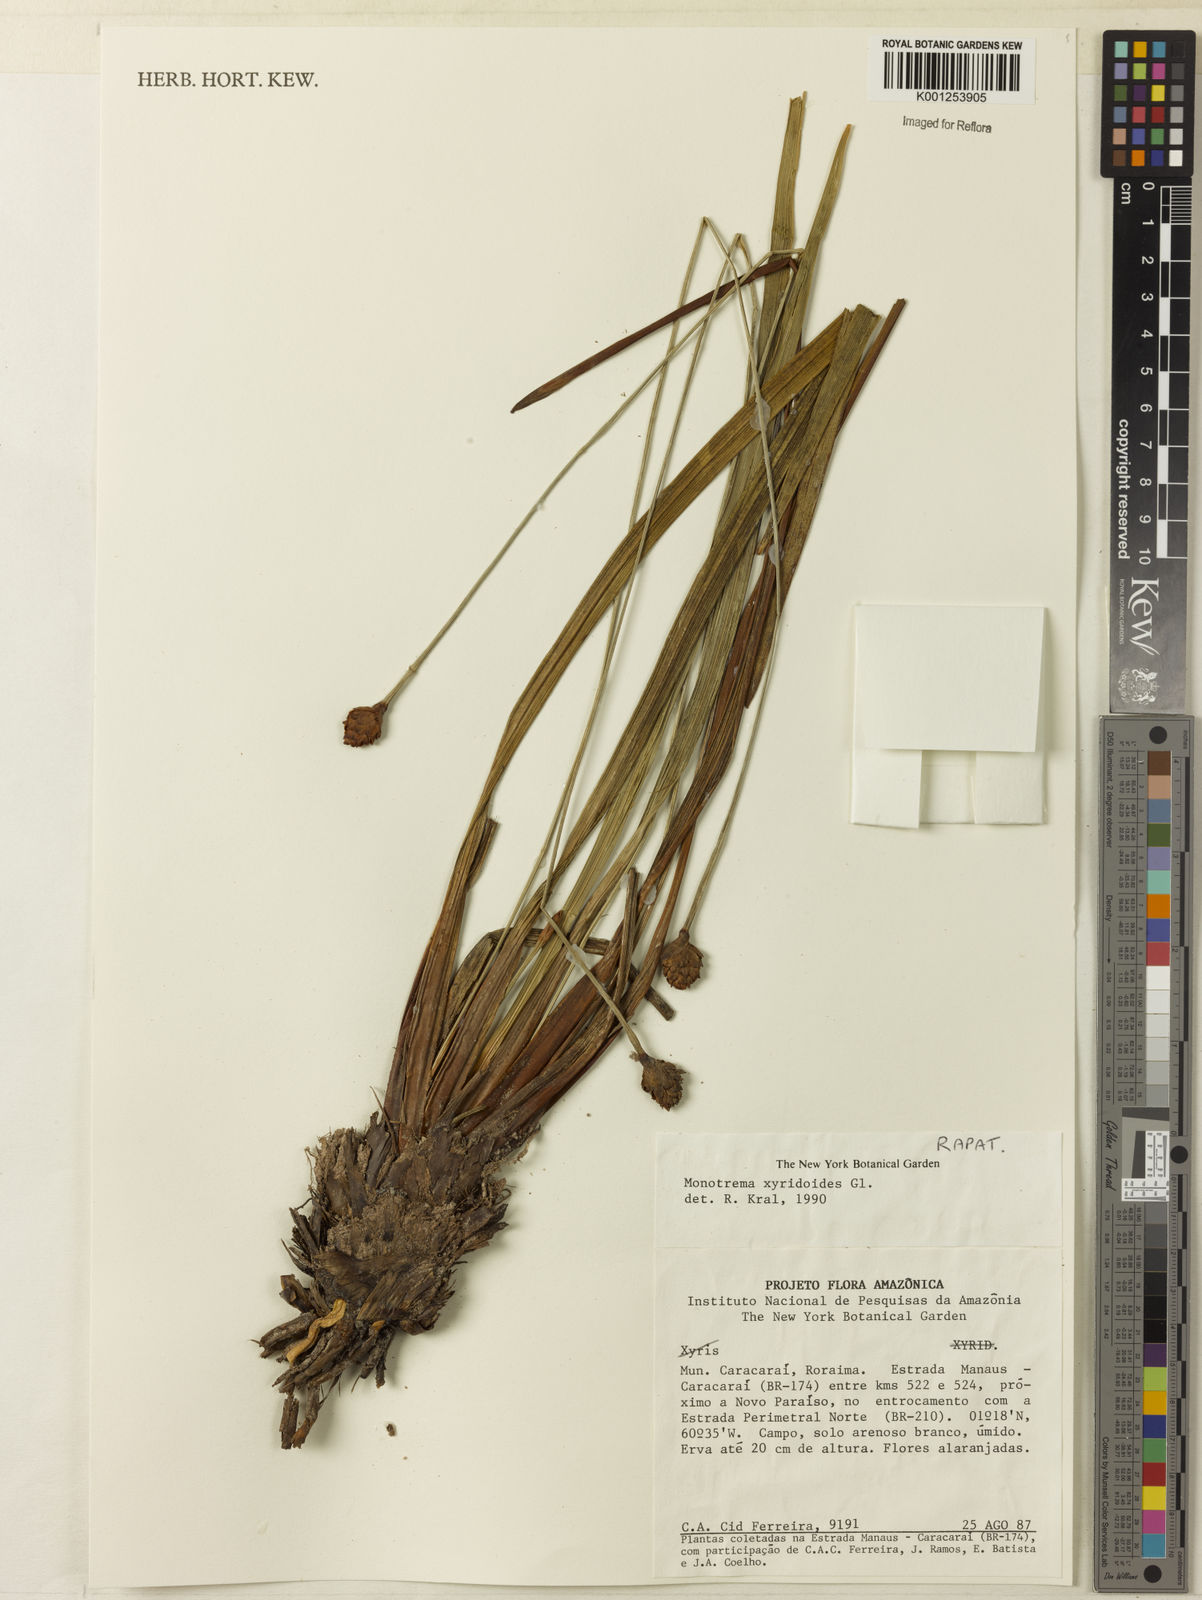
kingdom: Plantae
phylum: Tracheophyta
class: Liliopsida
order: Poales
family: Rapateaceae
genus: Monotrema
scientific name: Monotrema xyridoides
